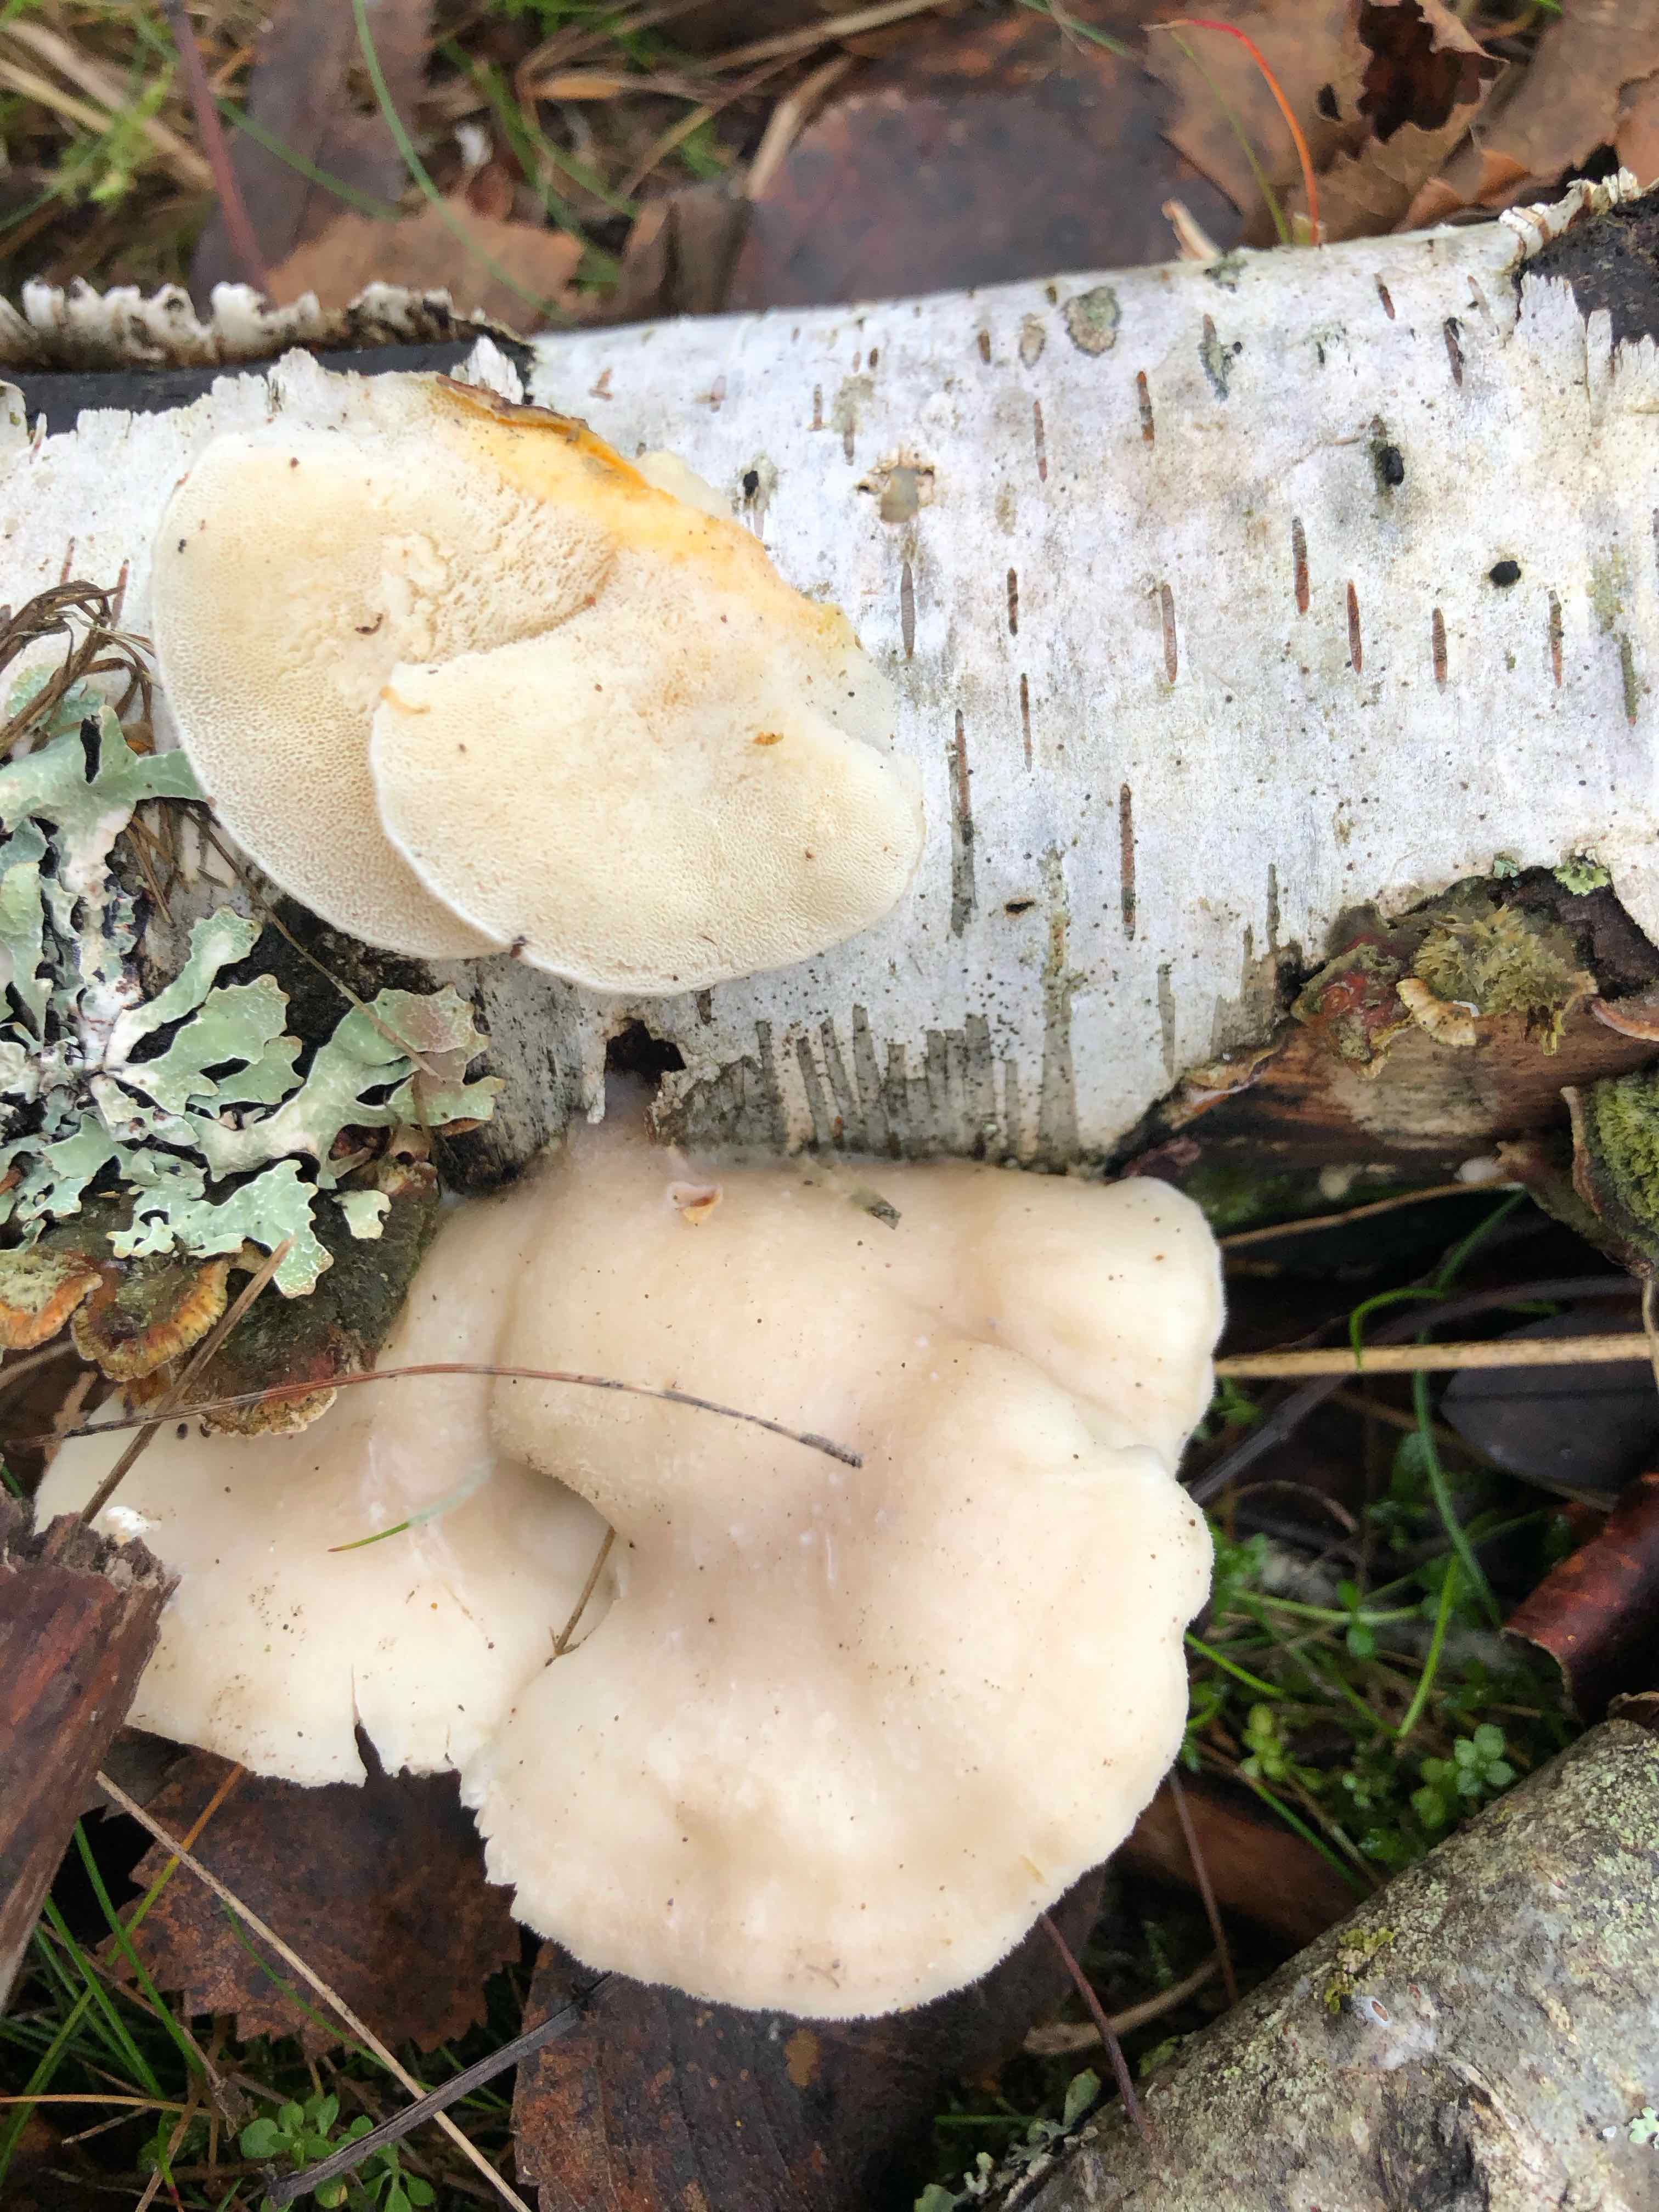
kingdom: Fungi
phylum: Basidiomycota
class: Agaricomycetes
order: Polyporales
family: Incrustoporiaceae
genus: Tyromyces
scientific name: Tyromyces chioneus
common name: stor blødporesvamp
